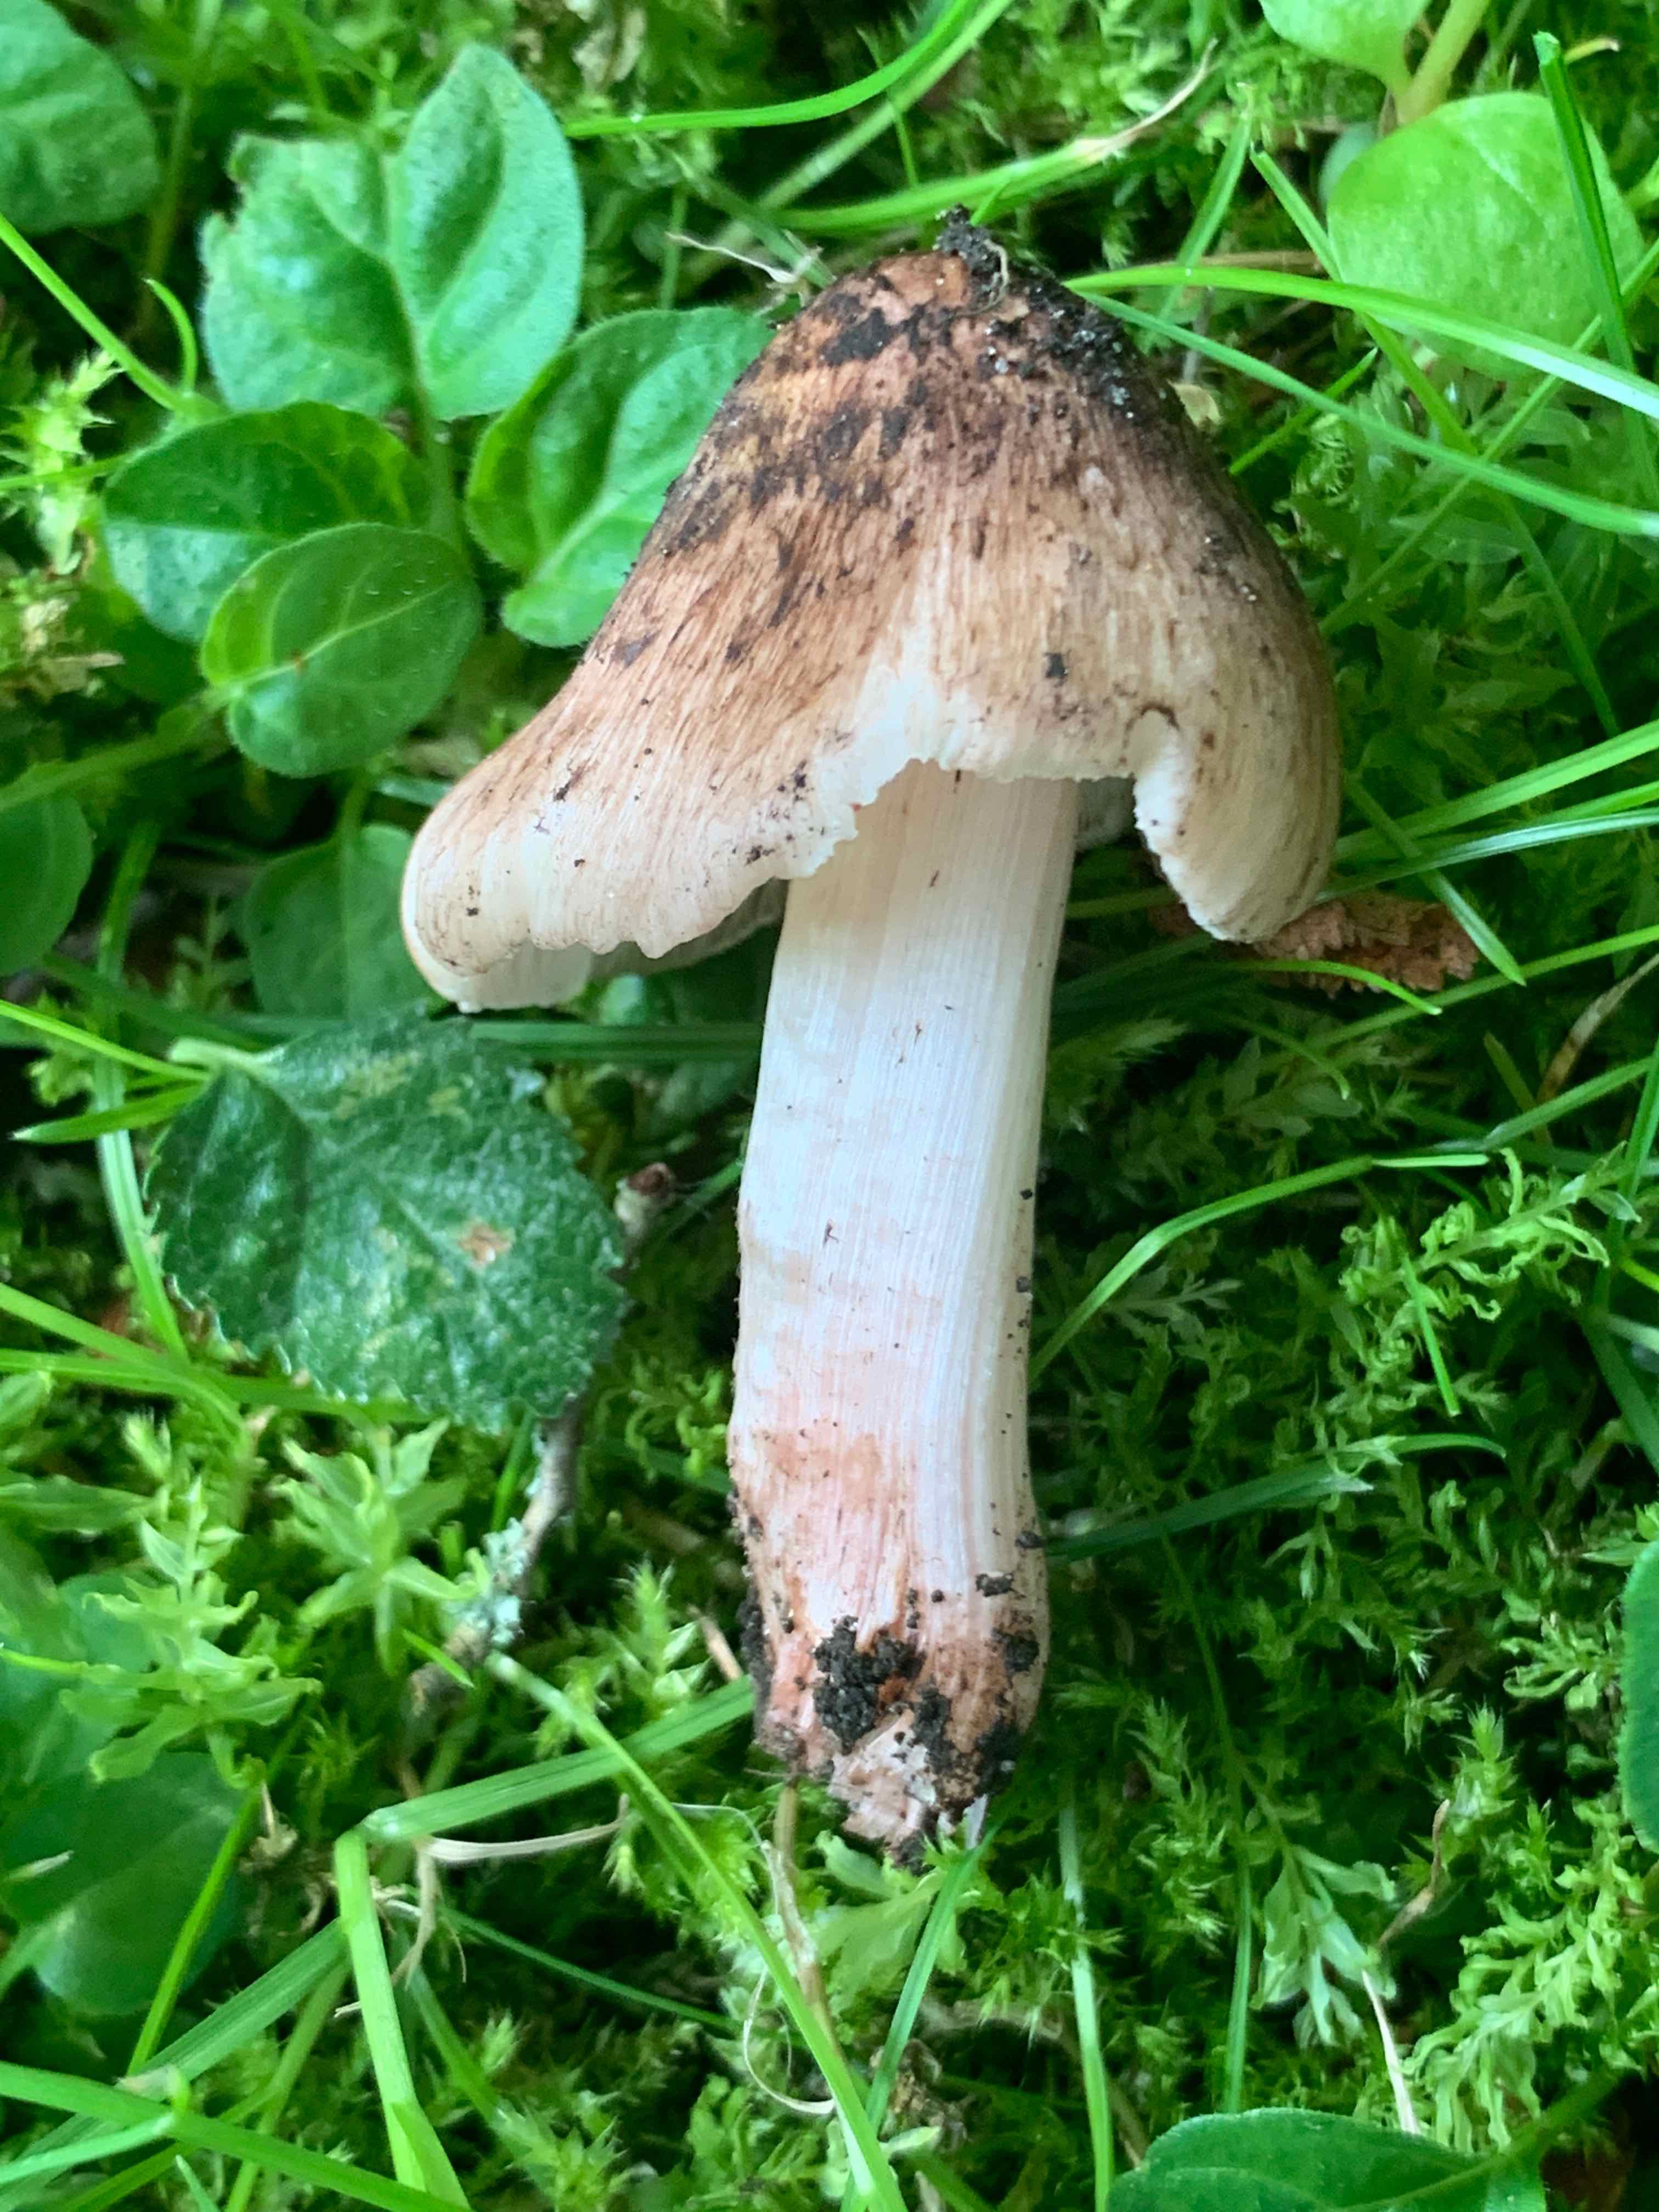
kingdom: Fungi
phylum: Basidiomycota
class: Agaricomycetes
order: Agaricales
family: Inocybaceae
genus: Inosperma
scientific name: Inosperma adaequatum
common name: vinrød trævlhat
